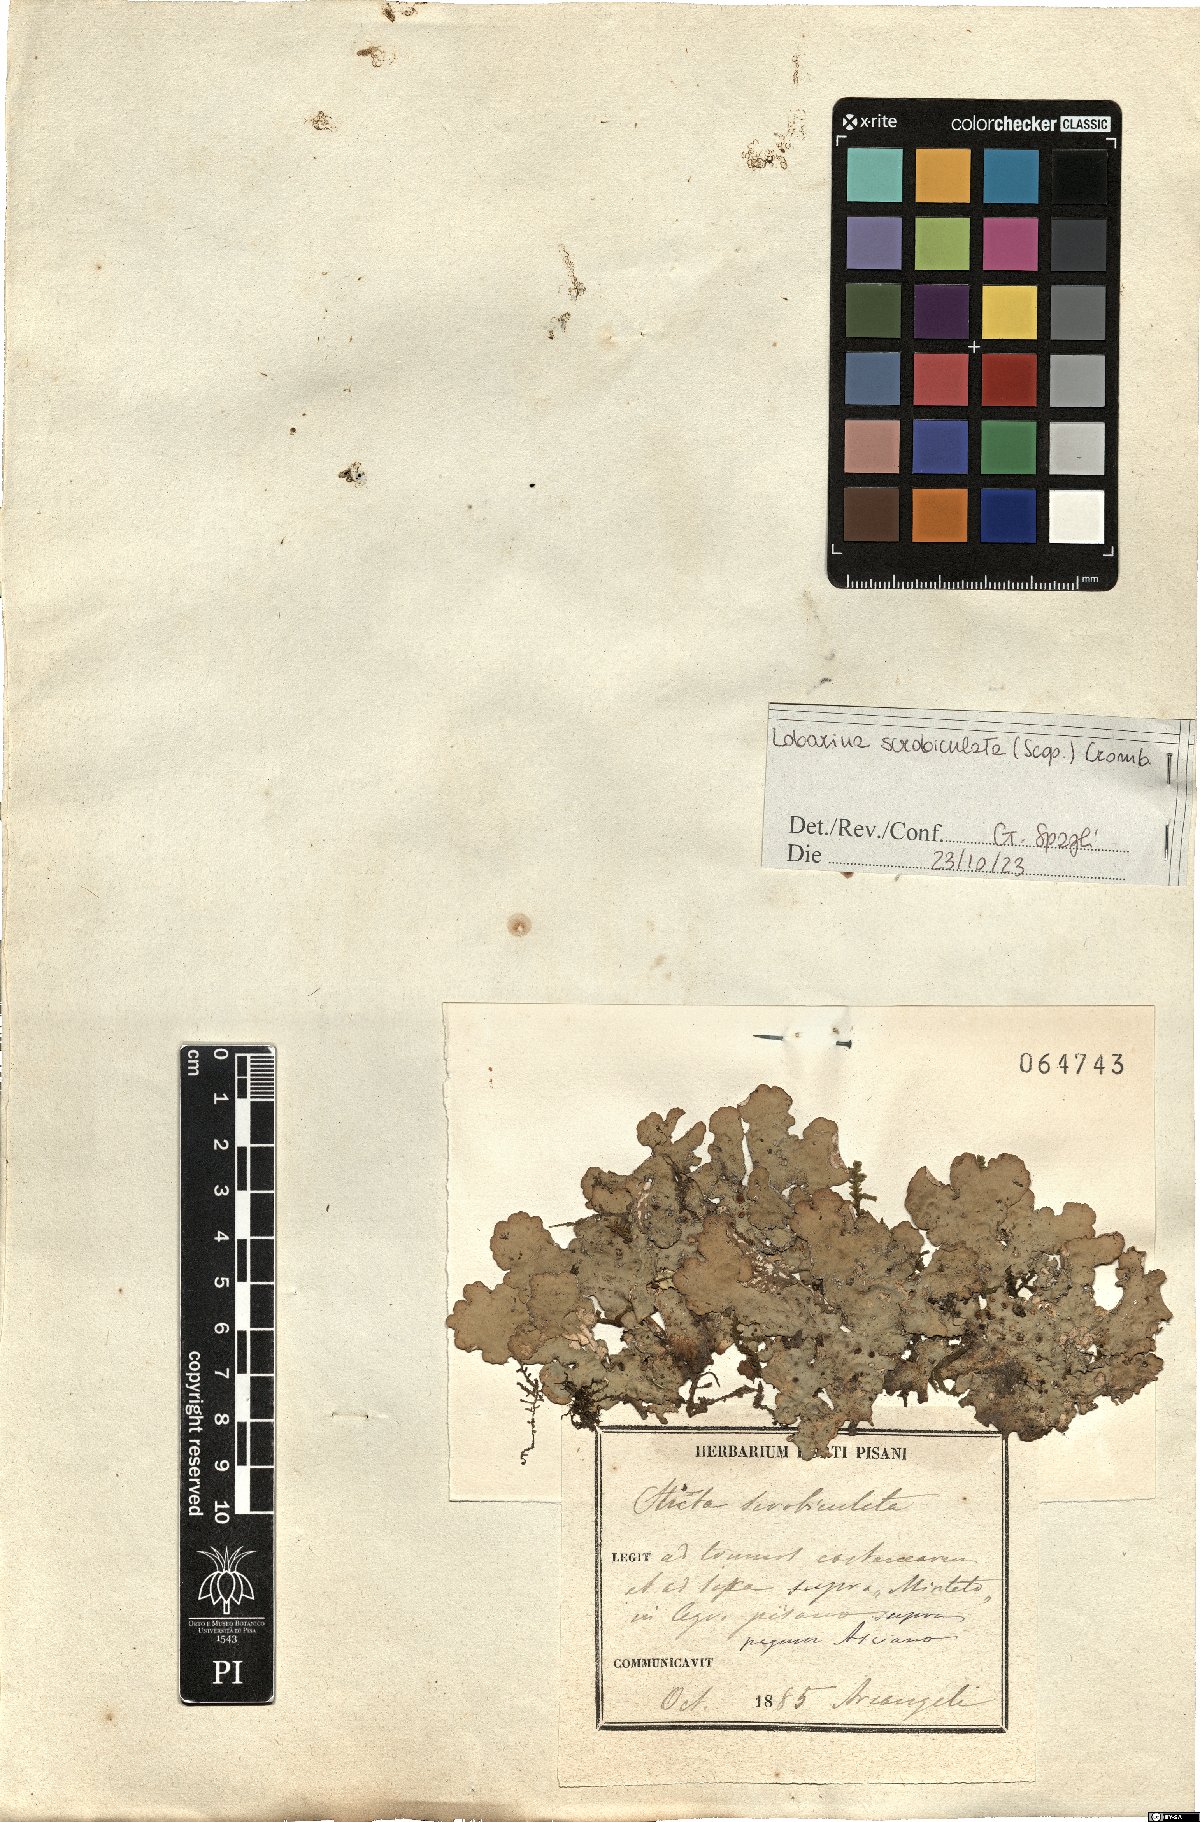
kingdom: Fungi
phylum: Ascomycota
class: Lecanoromycetes
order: Peltigerales
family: Lobariaceae
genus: Lobarina
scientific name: Lobarina scrobiculata
